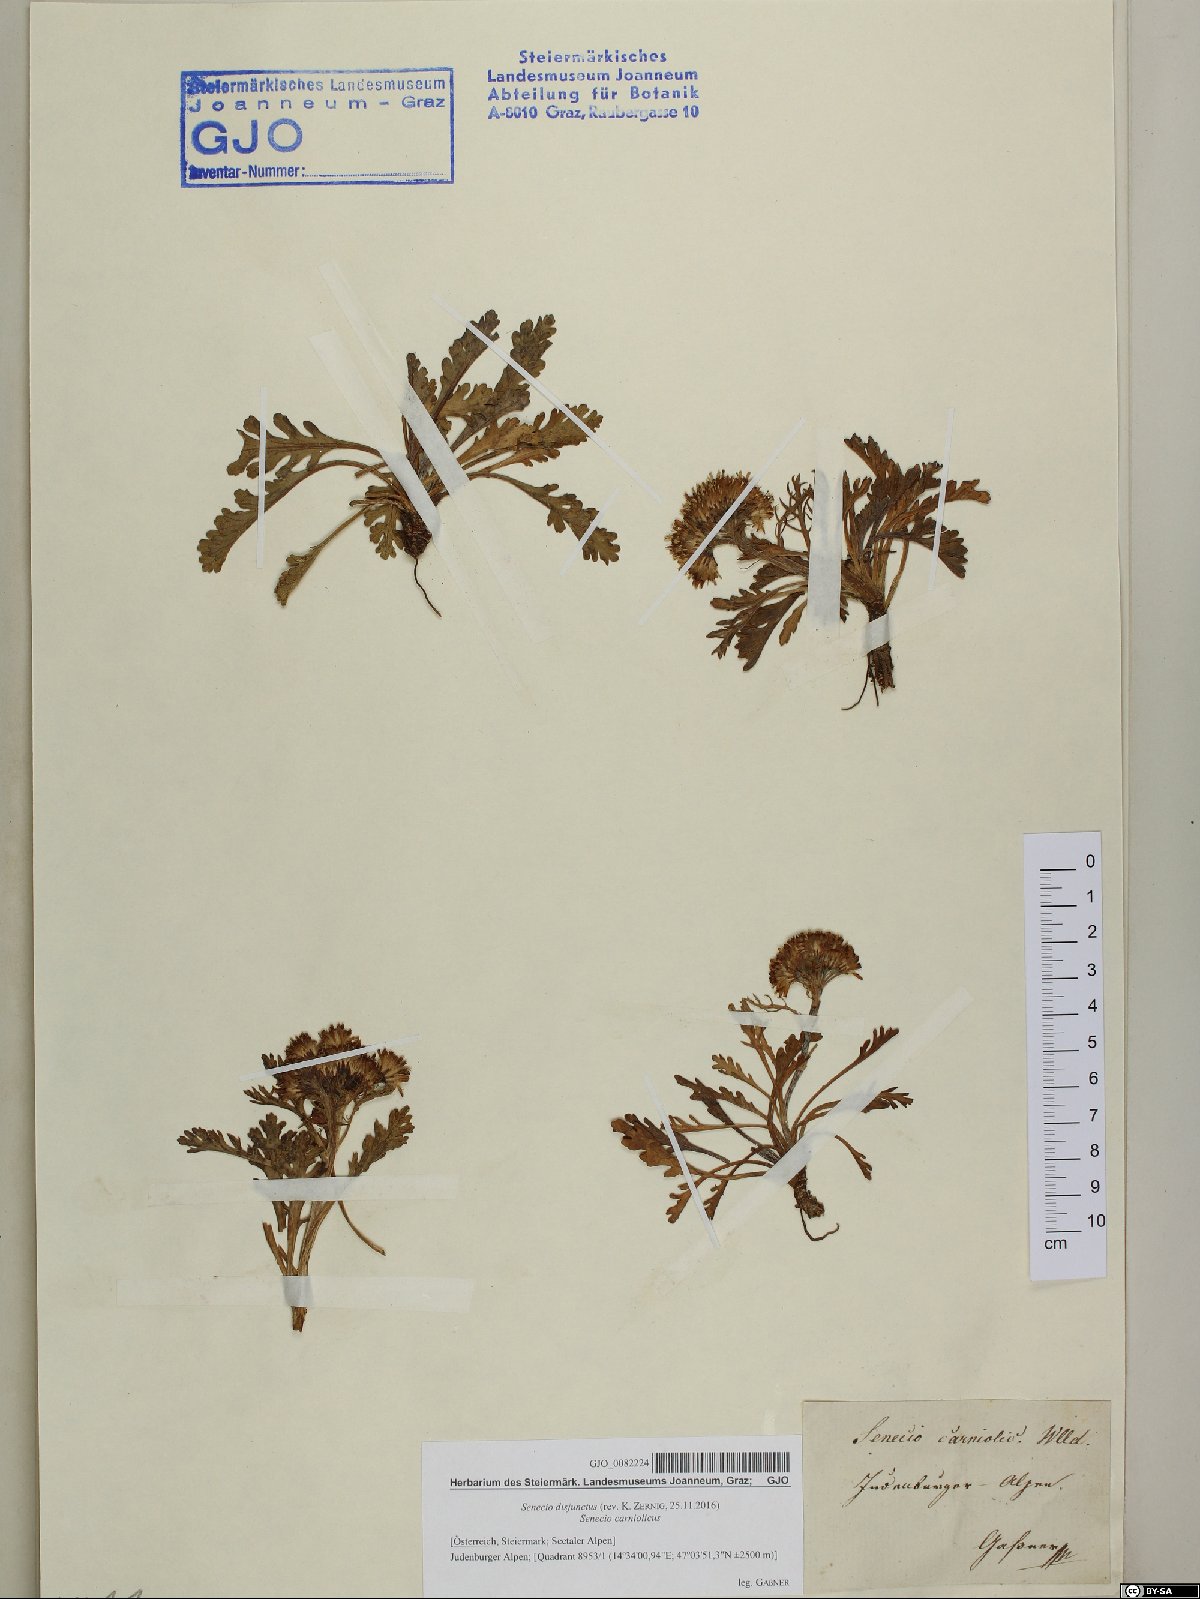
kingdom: Plantae
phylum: Tracheophyta
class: Magnoliopsida
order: Asterales
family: Asteraceae
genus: Jacobaea
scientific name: Jacobaea disjuncta
